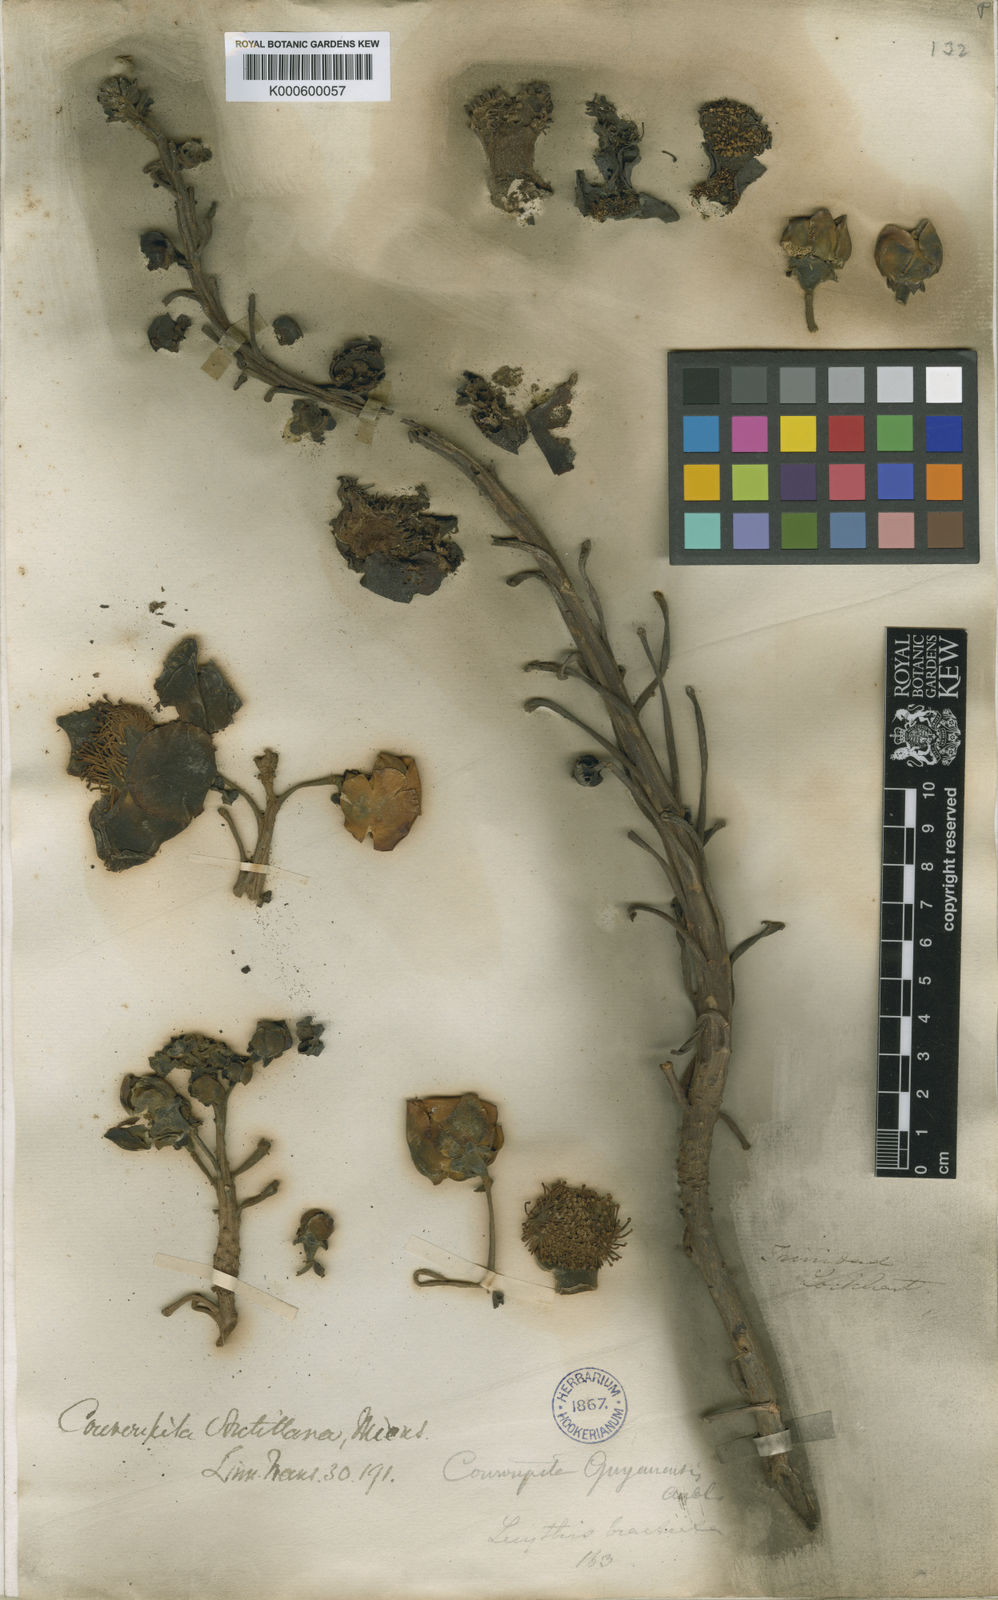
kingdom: Plantae
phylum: Tracheophyta
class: Magnoliopsida
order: Ericales
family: Lecythidaceae
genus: Couroupita
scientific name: Couroupita guianensis
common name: Cannonball tree
